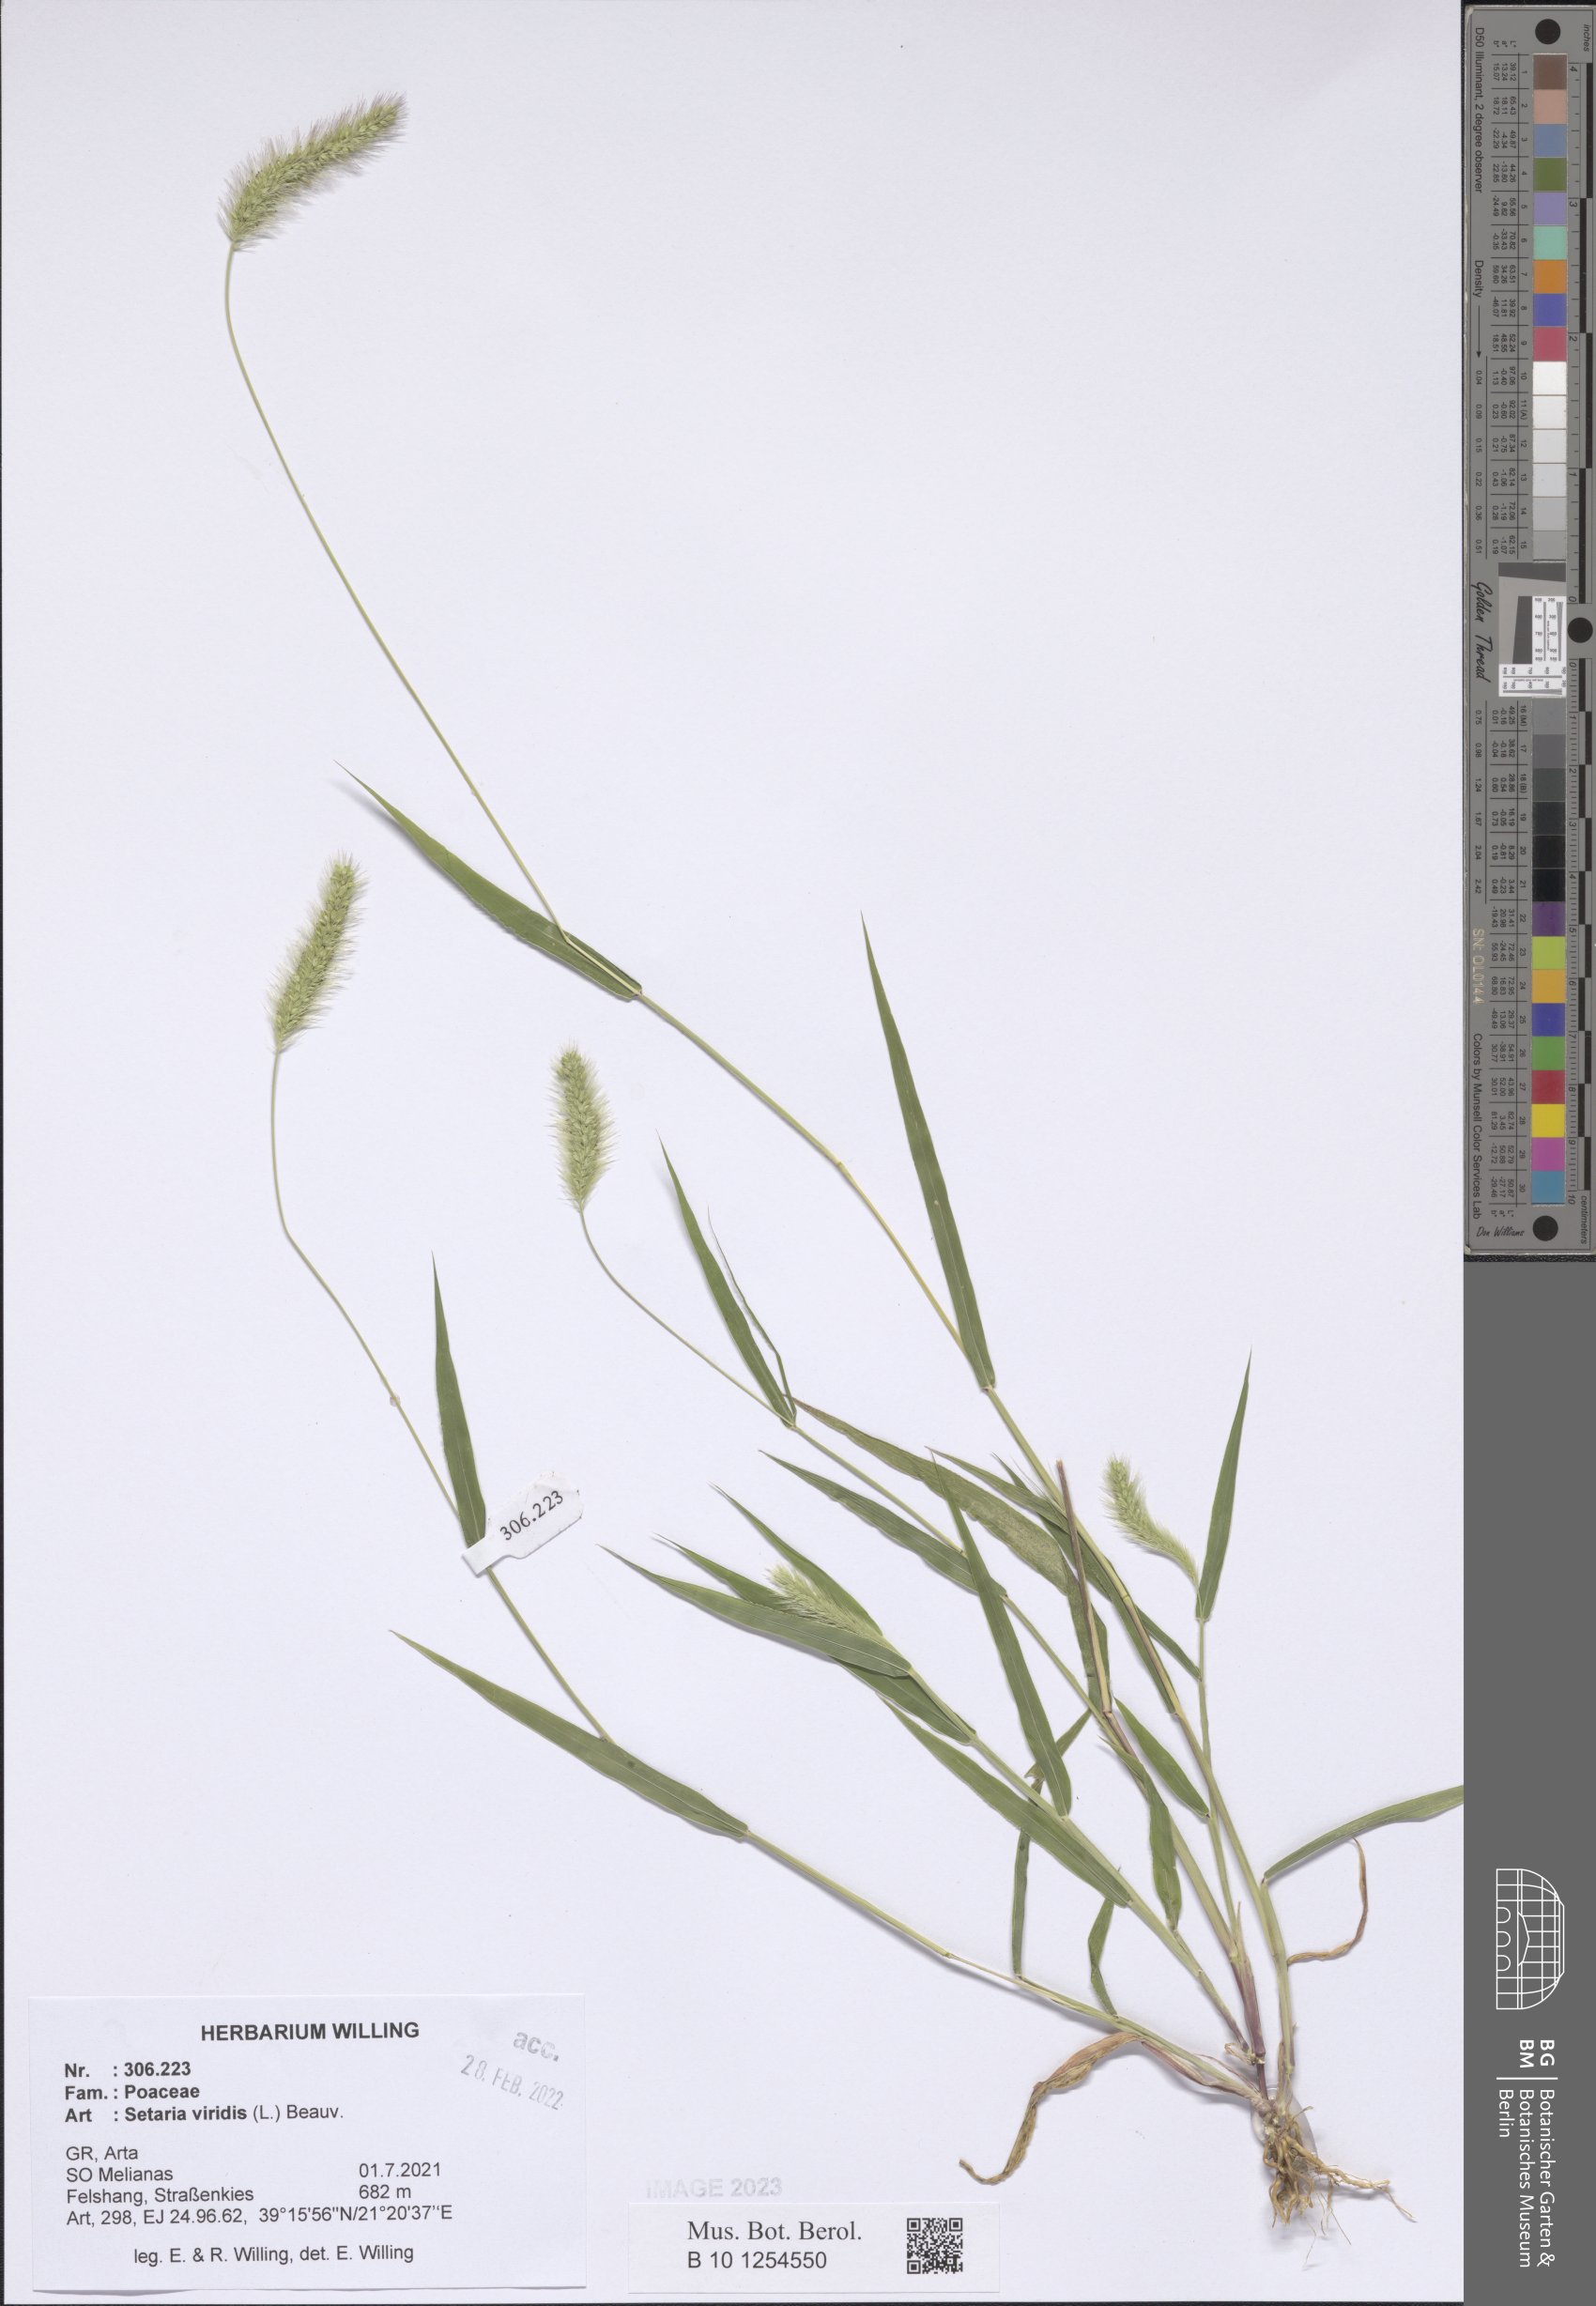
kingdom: Plantae
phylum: Tracheophyta
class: Liliopsida
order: Poales
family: Poaceae
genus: Setaria
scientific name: Setaria viridis
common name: Green bristlegrass
